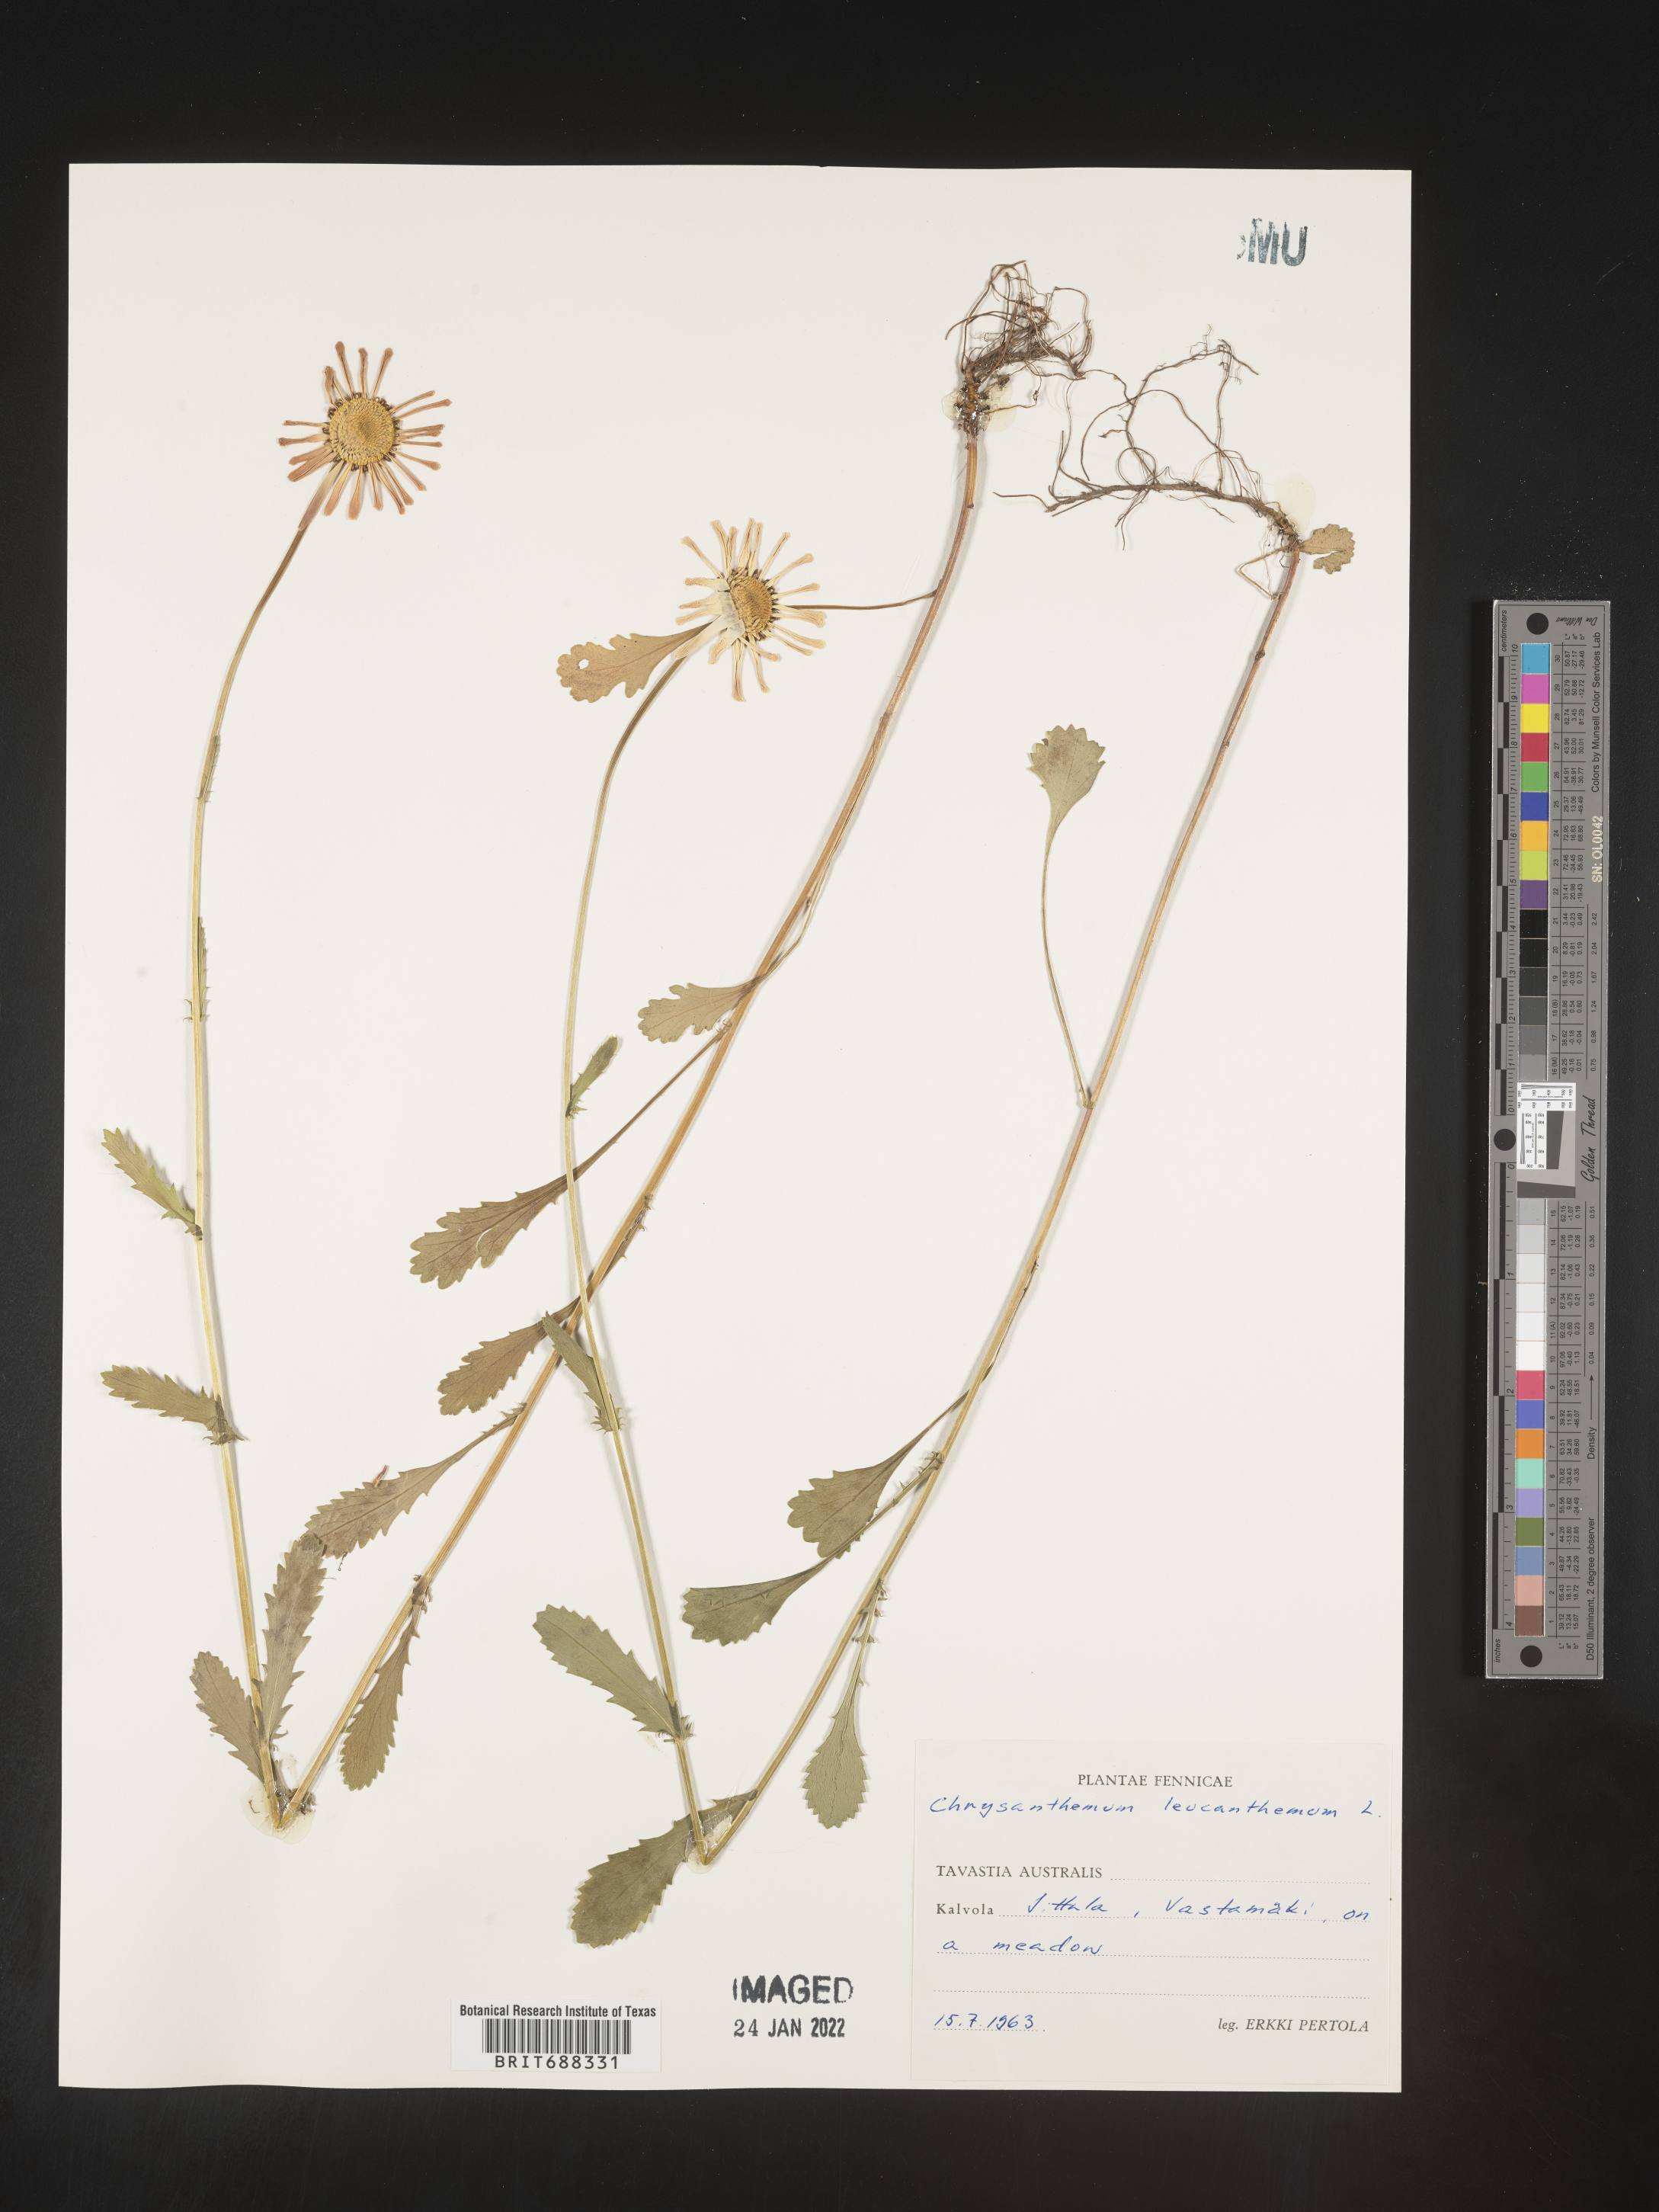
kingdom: Plantae
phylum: Tracheophyta
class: Magnoliopsida
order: Asterales
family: Asteraceae
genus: Chrysanthemum
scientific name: Chrysanthemum
